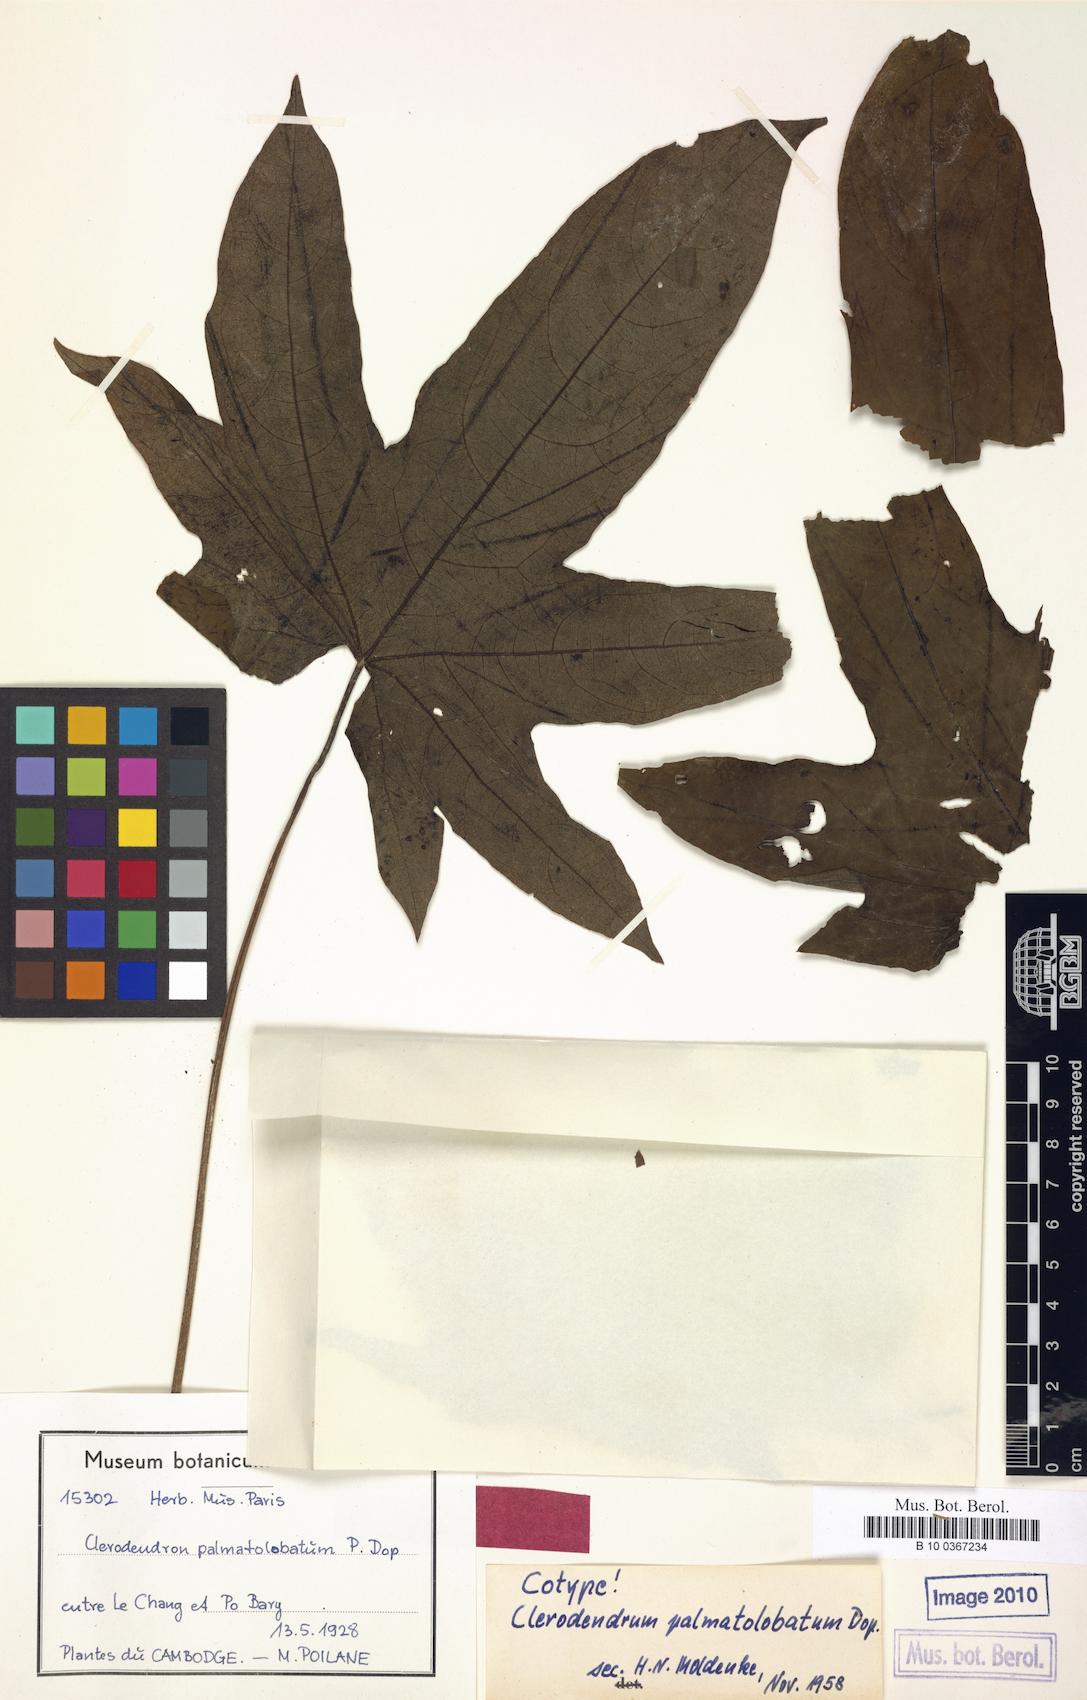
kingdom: Plantae
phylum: Tracheophyta
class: Magnoliopsida
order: Lamiales
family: Lamiaceae
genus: Clerodendrum
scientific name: Clerodendrum palmatolobatum
